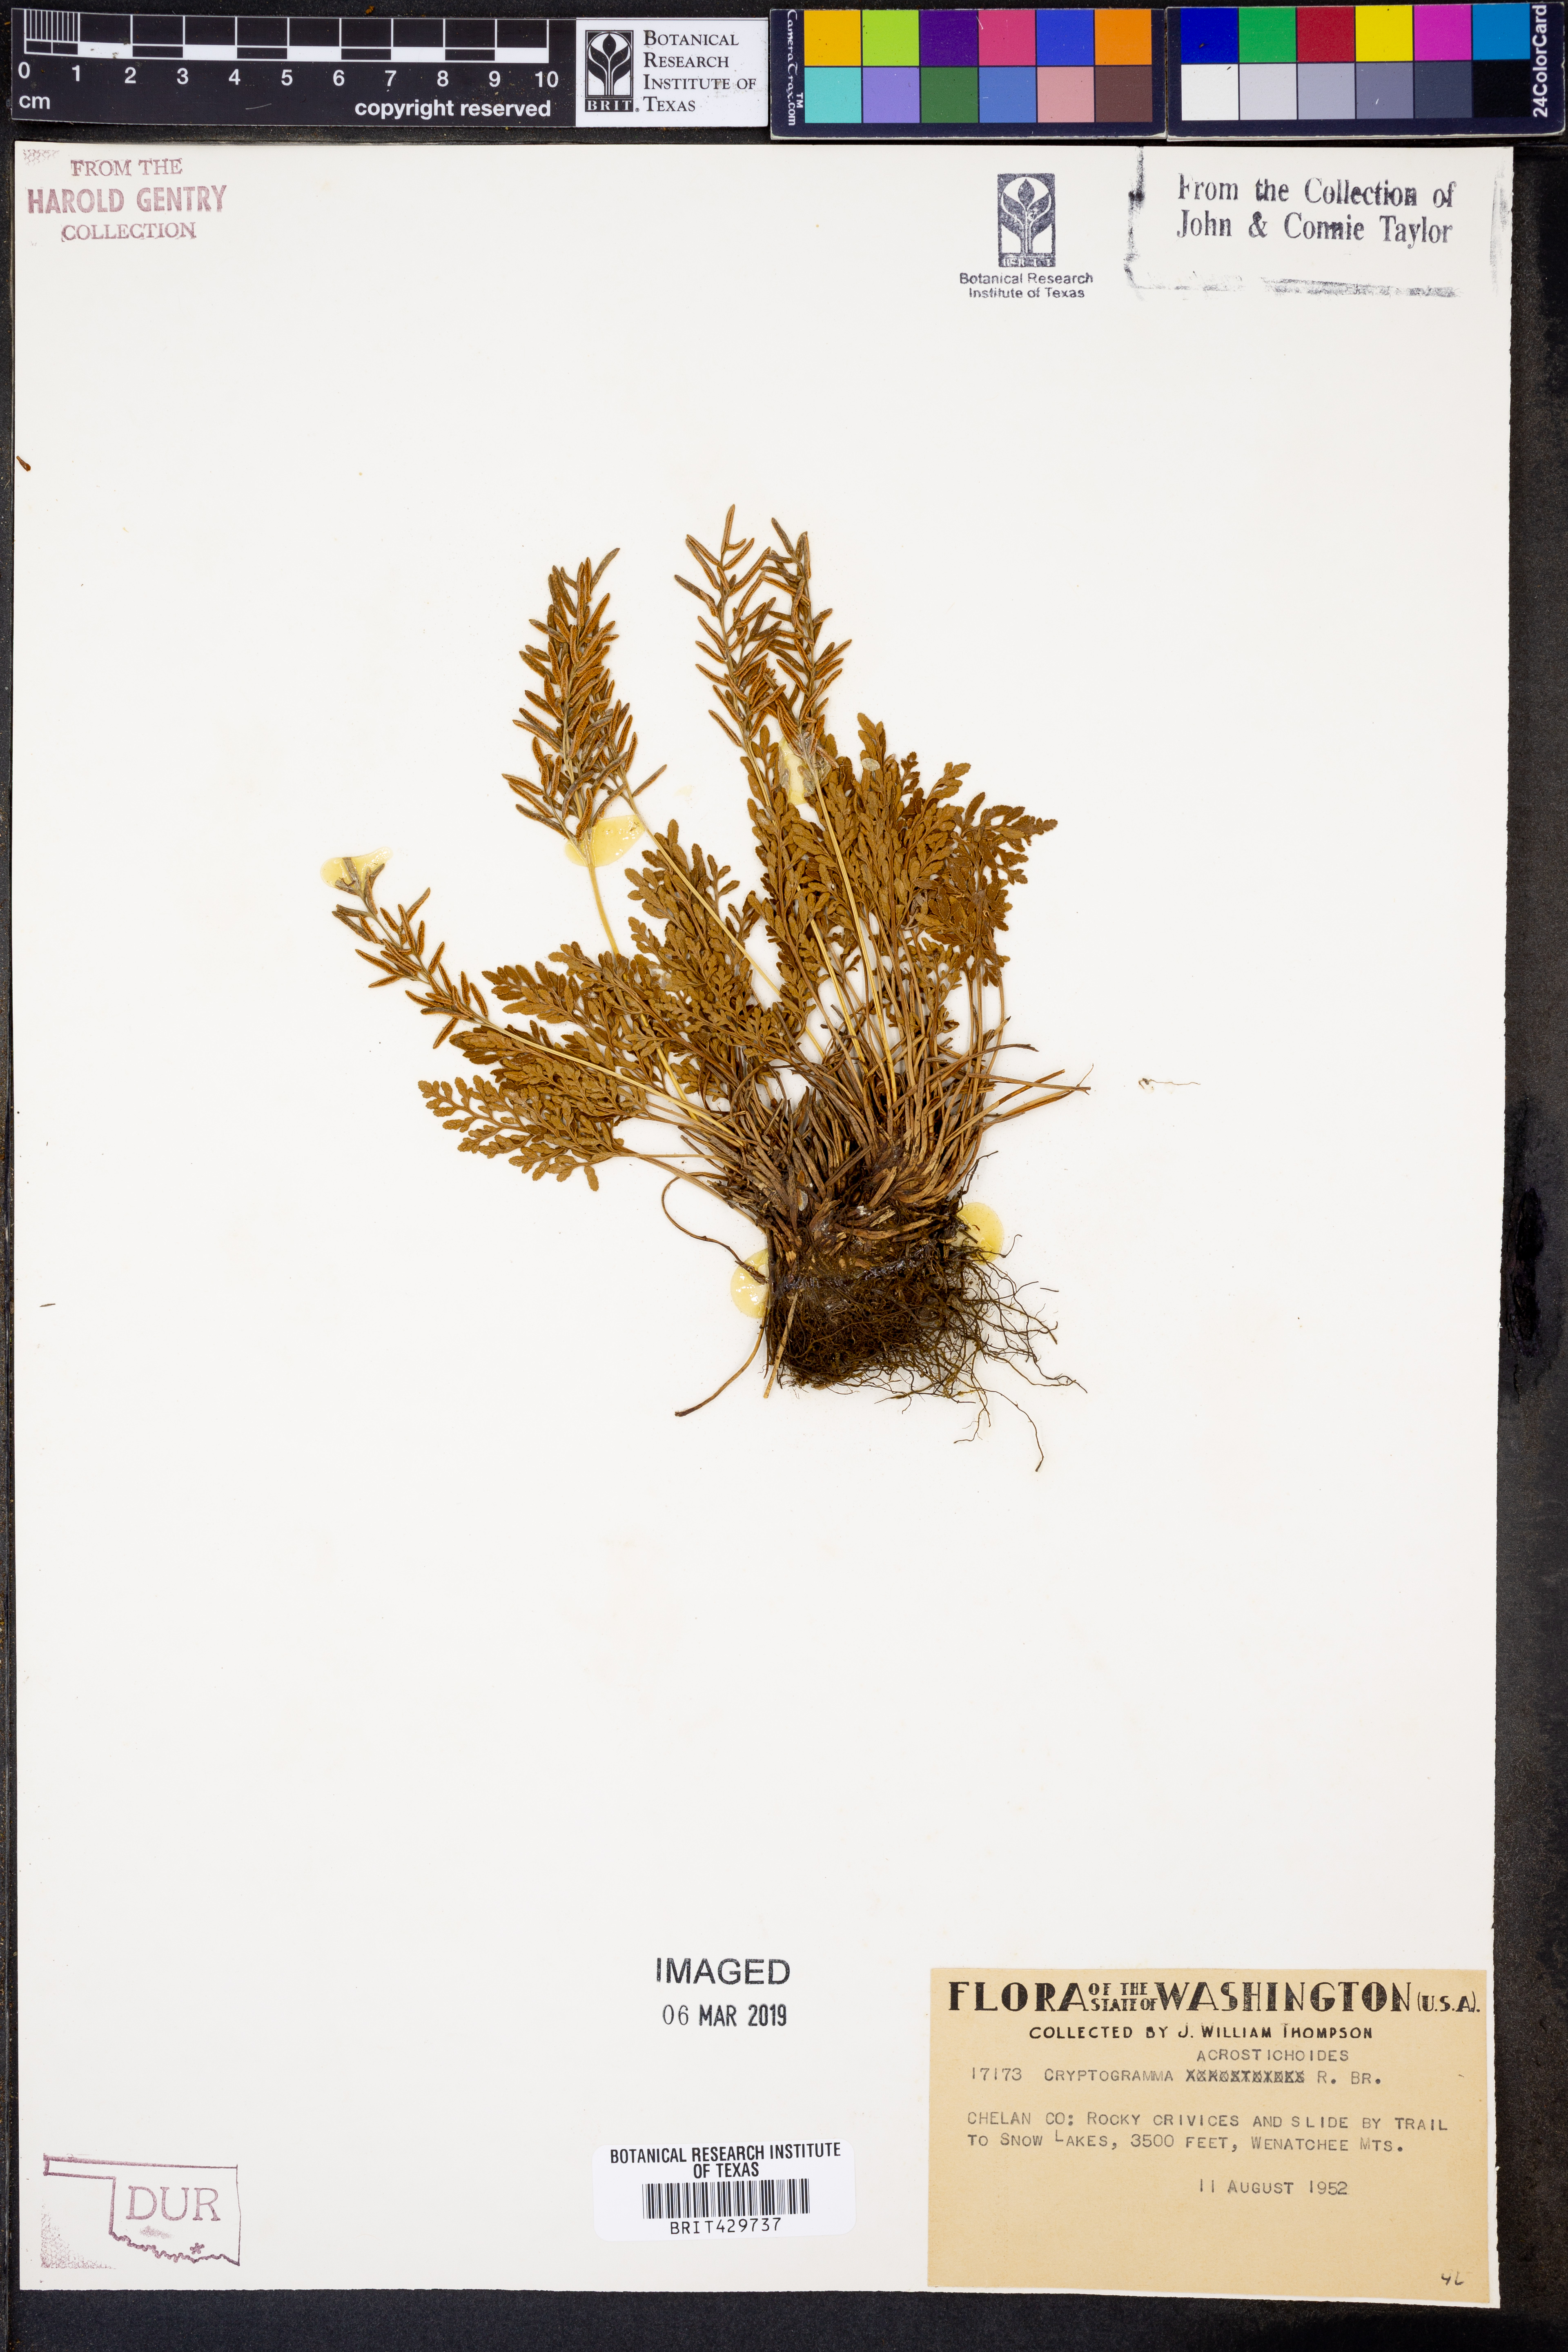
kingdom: Plantae
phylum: Tracheophyta
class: Polypodiopsida
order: Polypodiales
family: Pteridaceae
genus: Cryptogramma
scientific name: Cryptogramma acrostichoides
